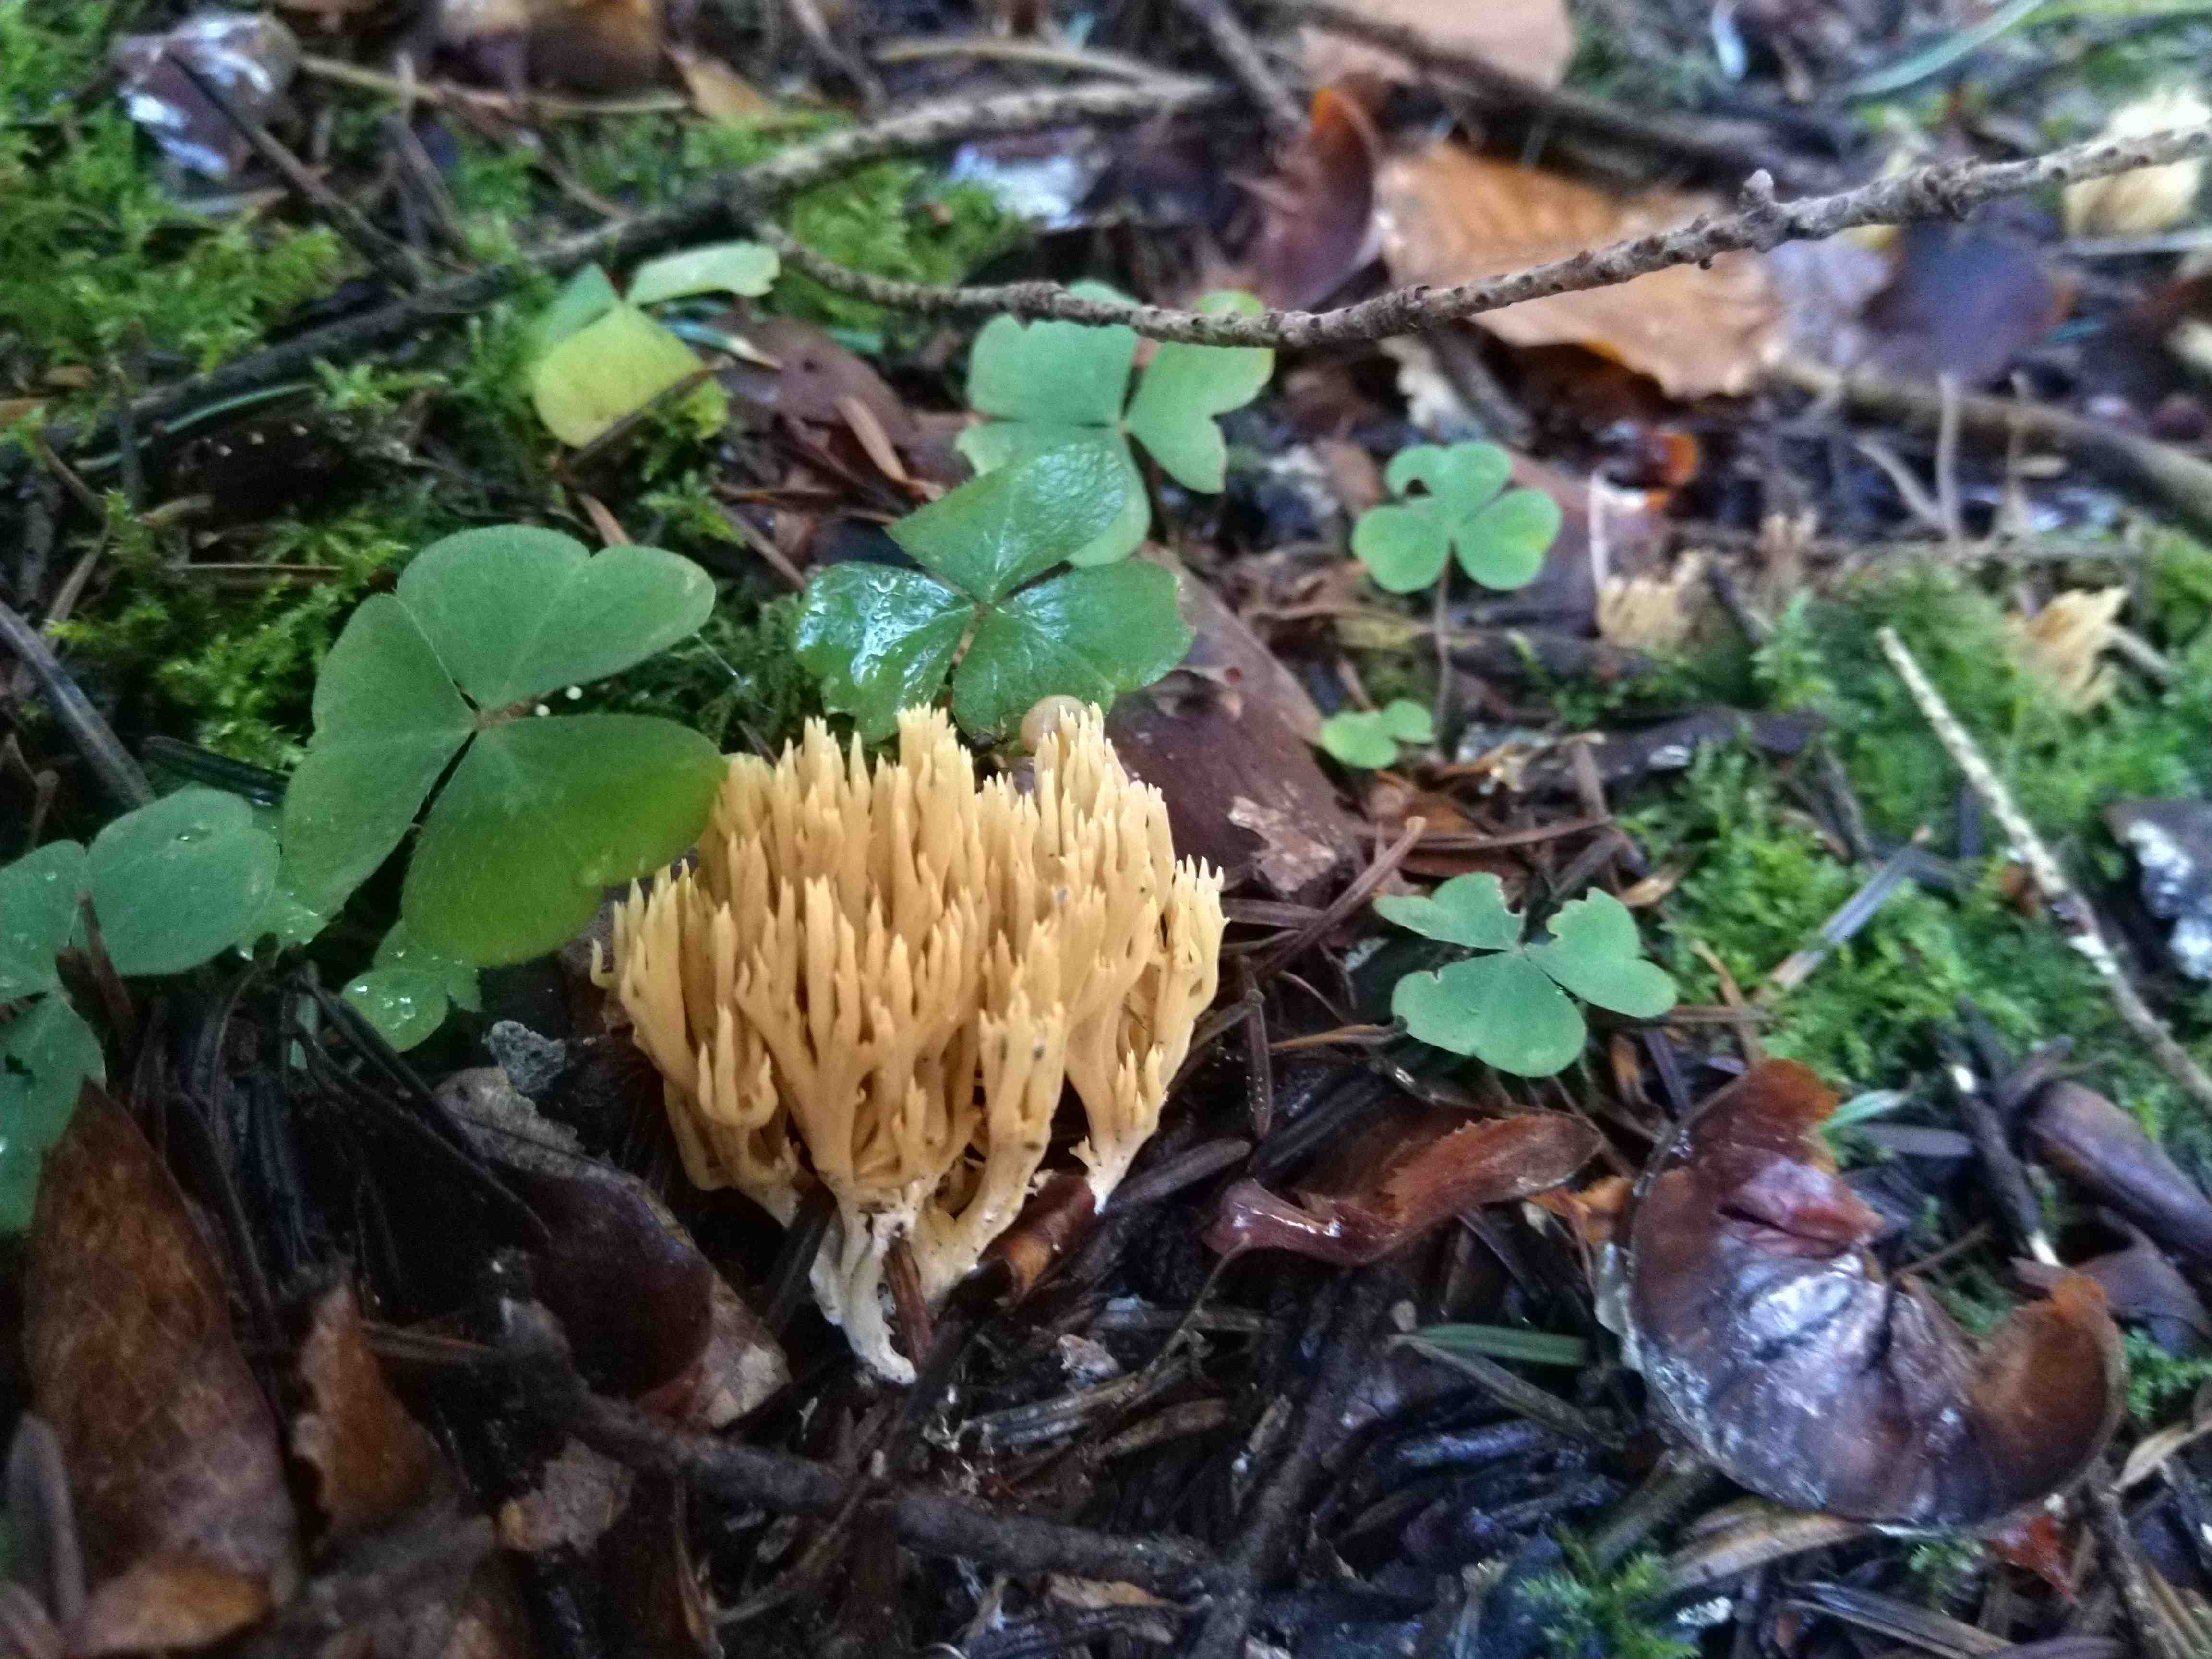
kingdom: Fungi
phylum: Basidiomycota
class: Agaricomycetes
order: Gomphales
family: Gomphaceae
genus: Phaeoclavulina
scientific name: Phaeoclavulina eumorpha
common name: gran-koralsvamp
